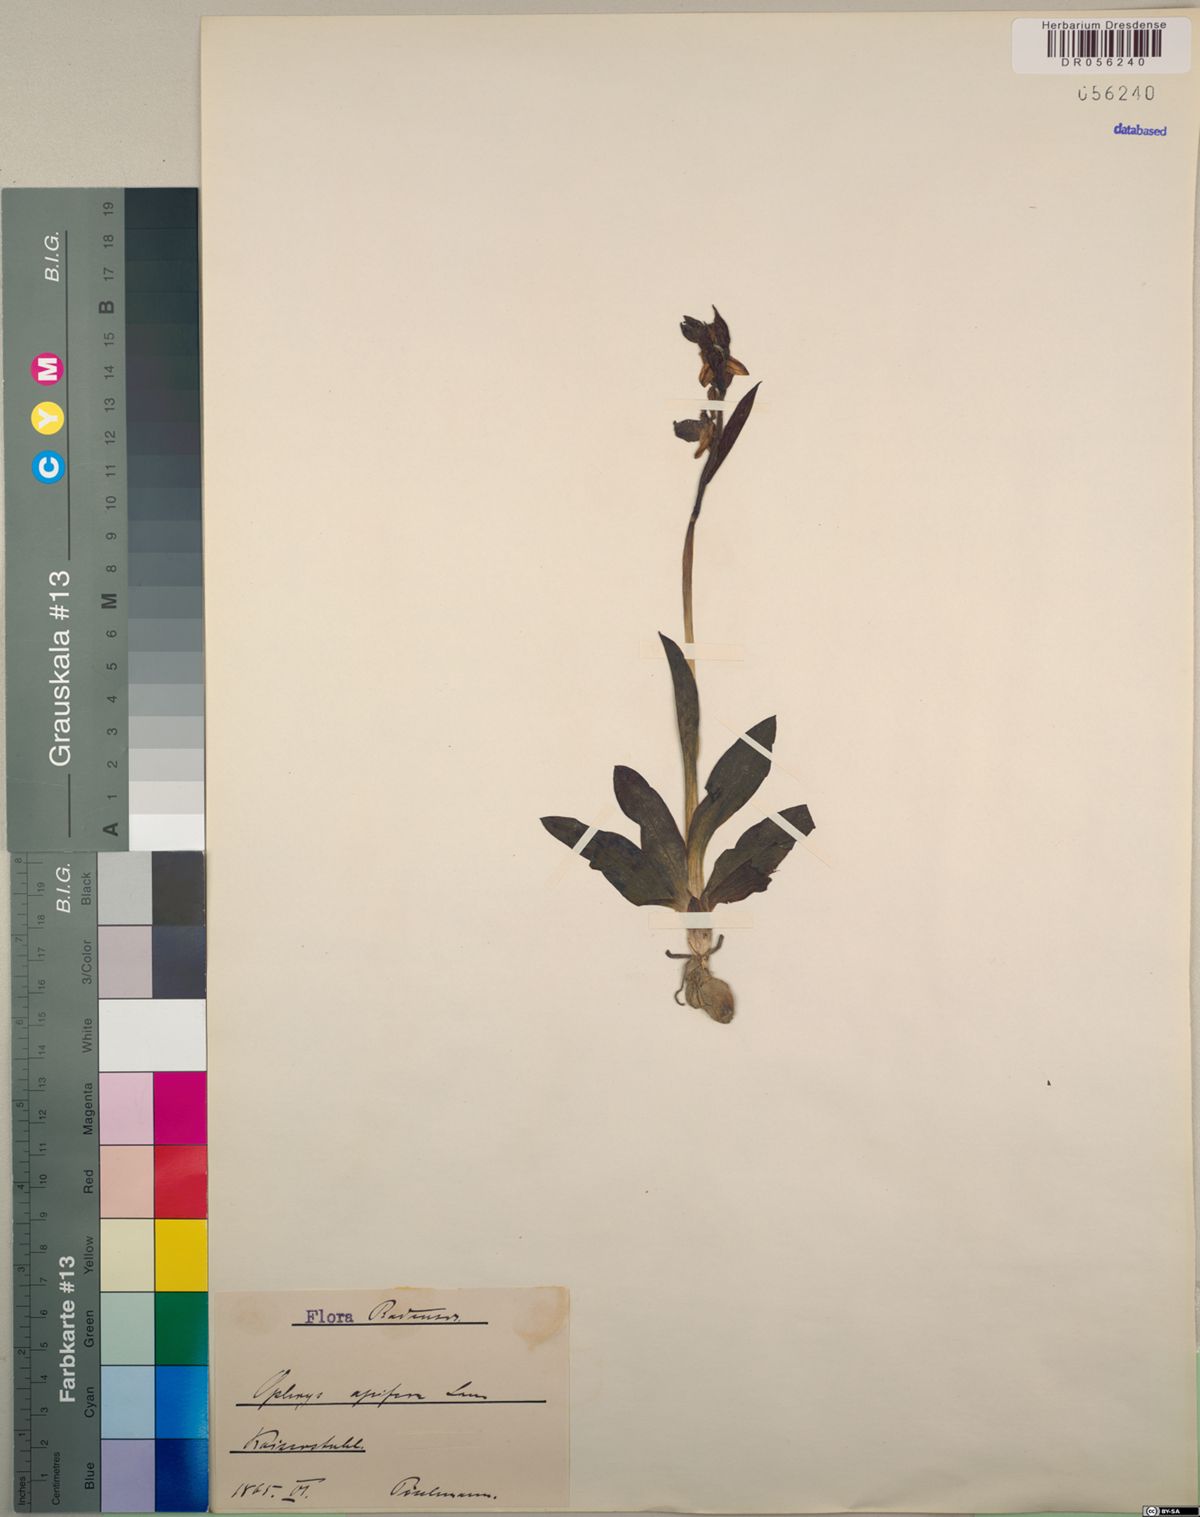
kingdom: Plantae
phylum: Tracheophyta
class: Liliopsida
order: Asparagales
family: Orchidaceae
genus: Ophrys
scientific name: Ophrys apifera
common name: Bee orchid
